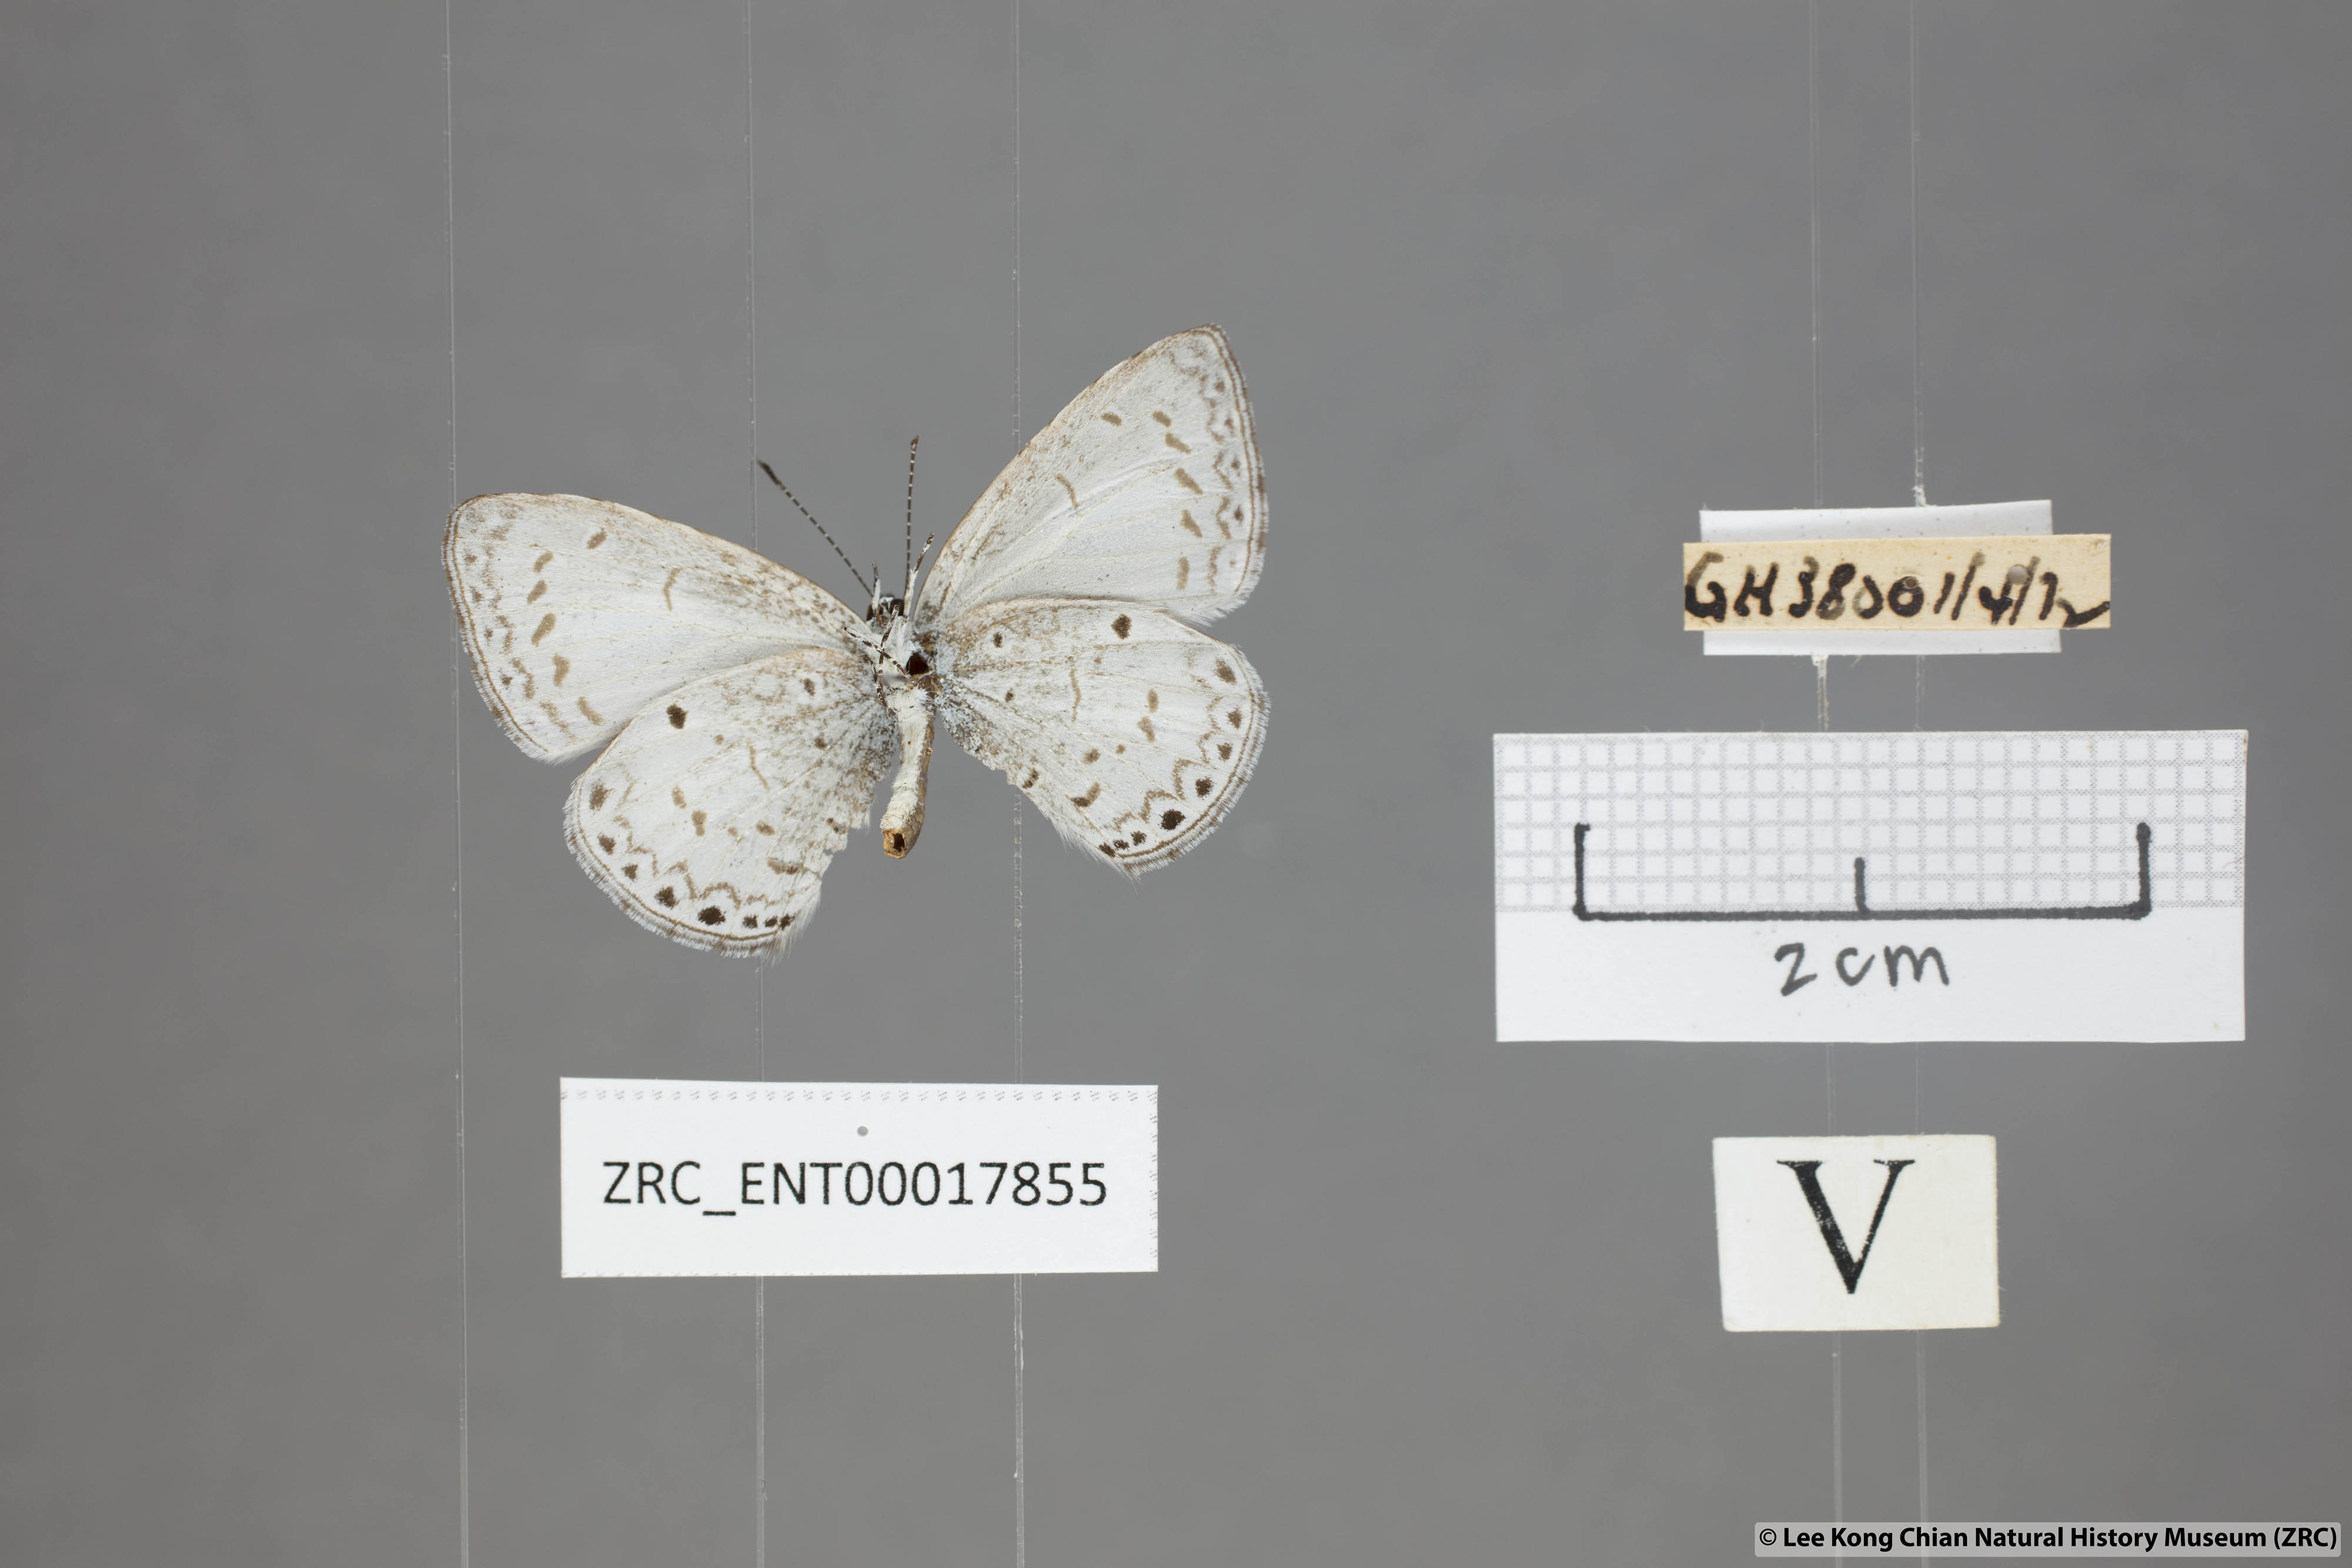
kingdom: Animalia
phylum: Arthropoda
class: Insecta
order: Lepidoptera
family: Lycaenidae
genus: Udara
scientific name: Udara
